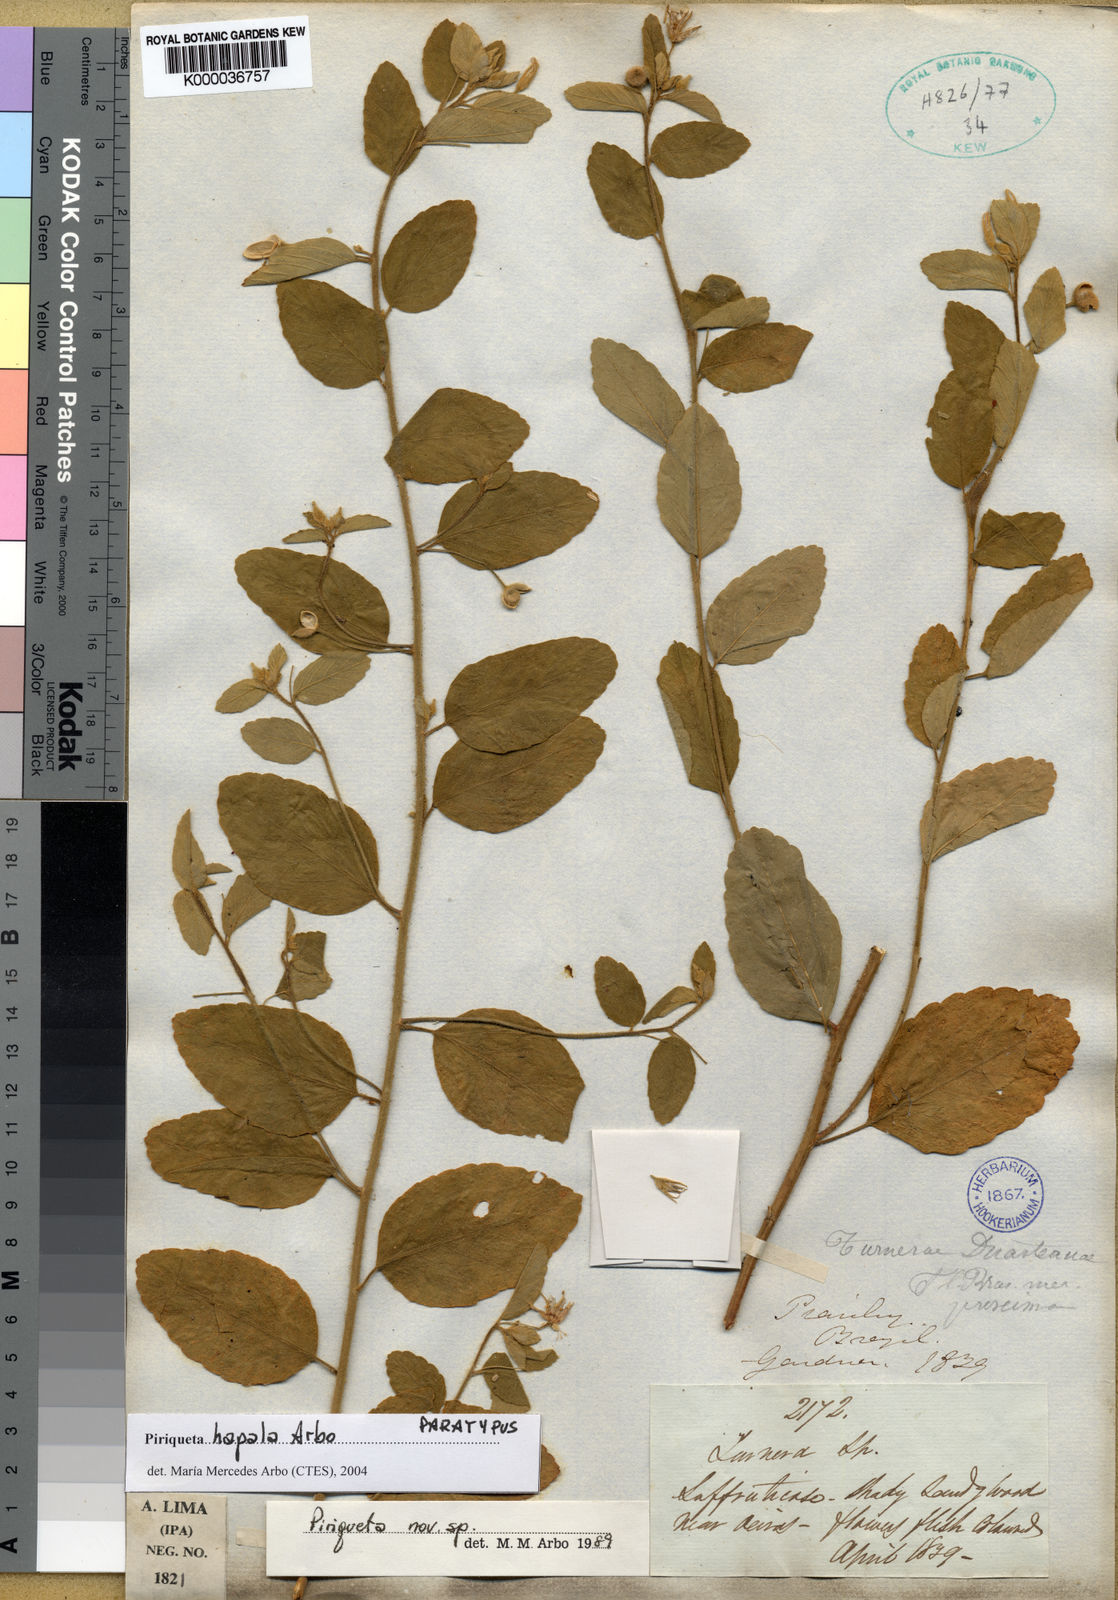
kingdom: Plantae
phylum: Tracheophyta
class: Magnoliopsida
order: Malpighiales
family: Turneraceae
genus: Piriqueta
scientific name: Piriqueta
